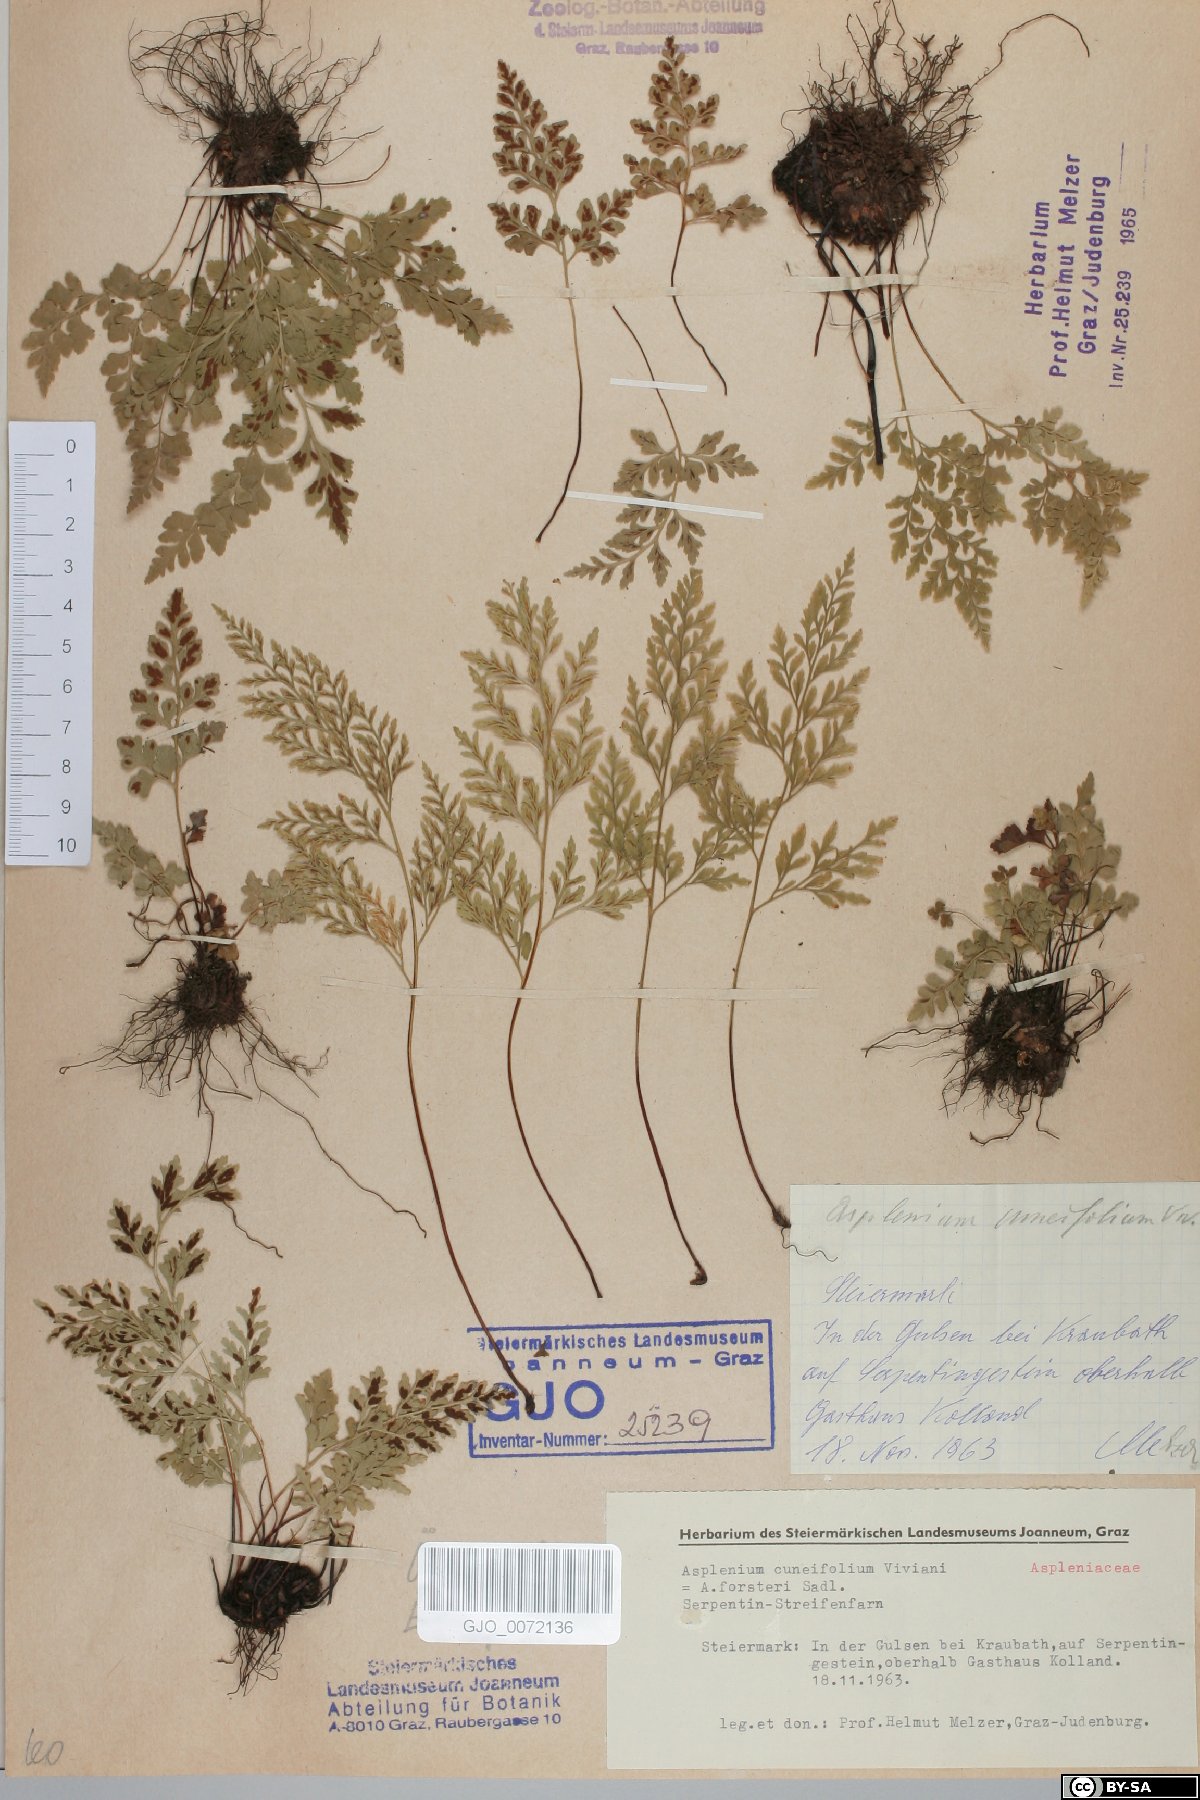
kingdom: Plantae
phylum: Tracheophyta
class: Polypodiopsida
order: Polypodiales
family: Aspleniaceae
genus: Asplenium
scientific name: Asplenium cuneifolium
